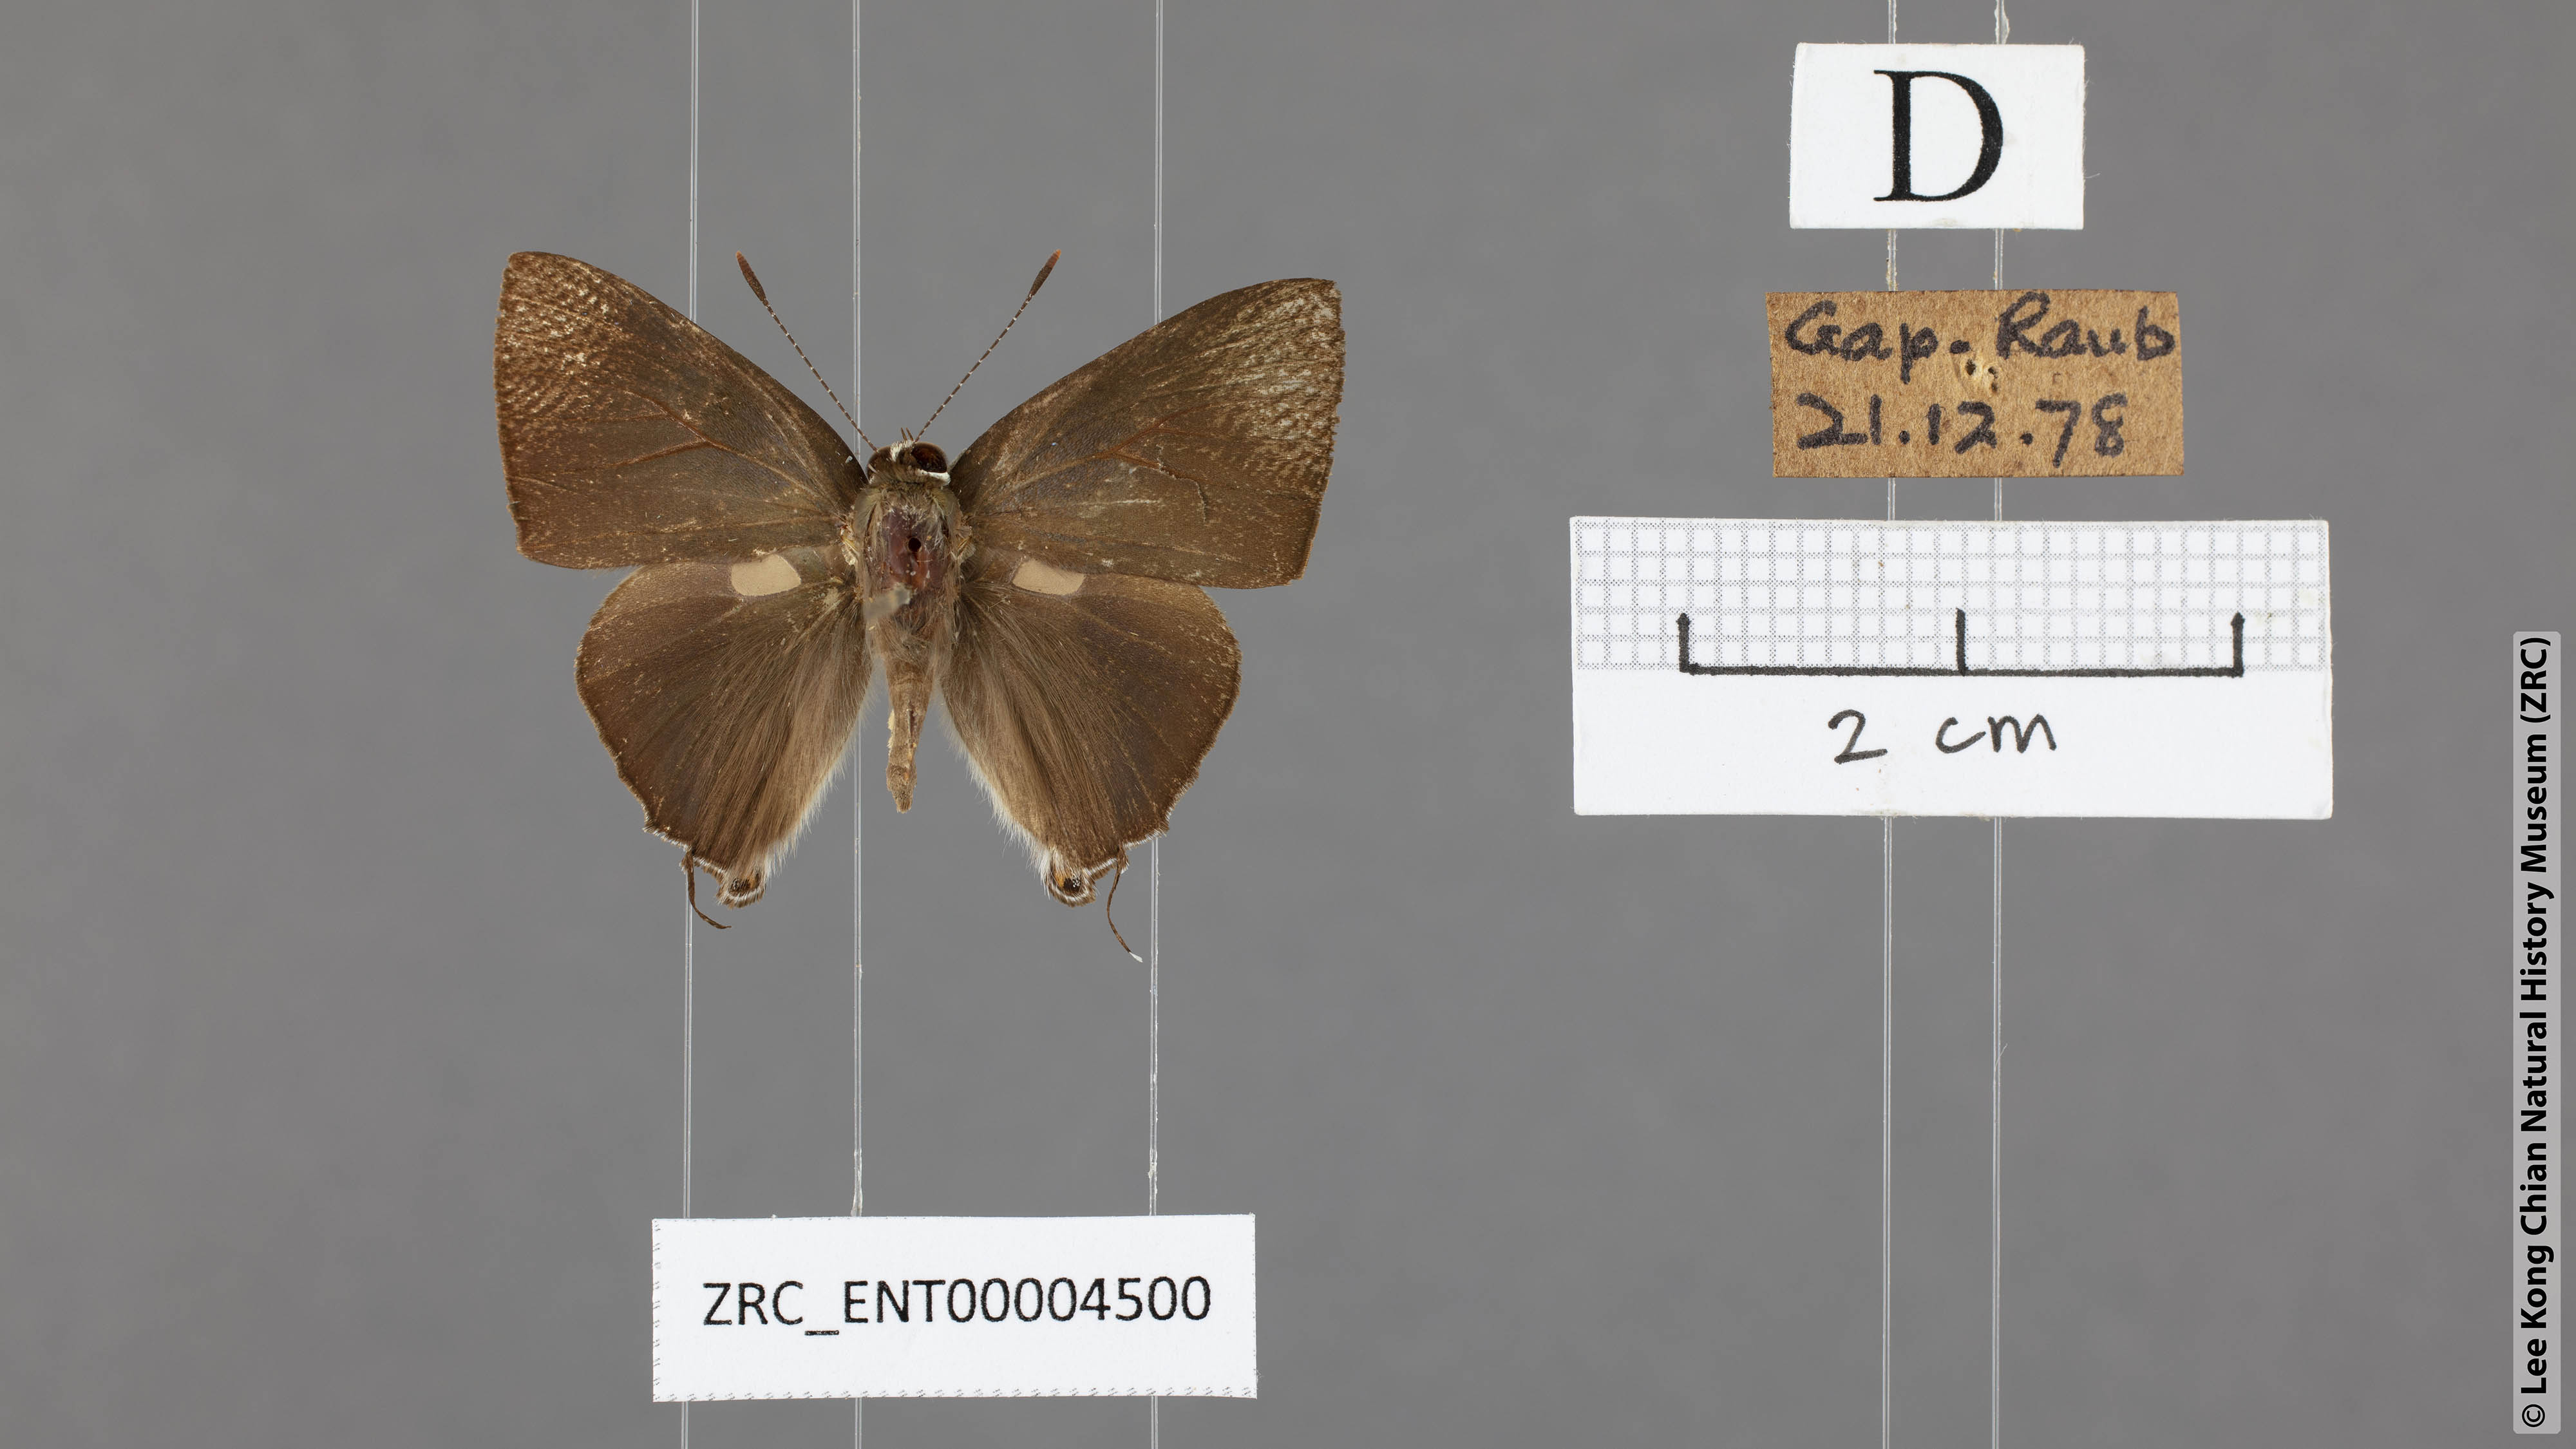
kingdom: Animalia
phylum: Arthropoda
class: Insecta
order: Lepidoptera
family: Lycaenidae
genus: Rapala
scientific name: Rapala manea
